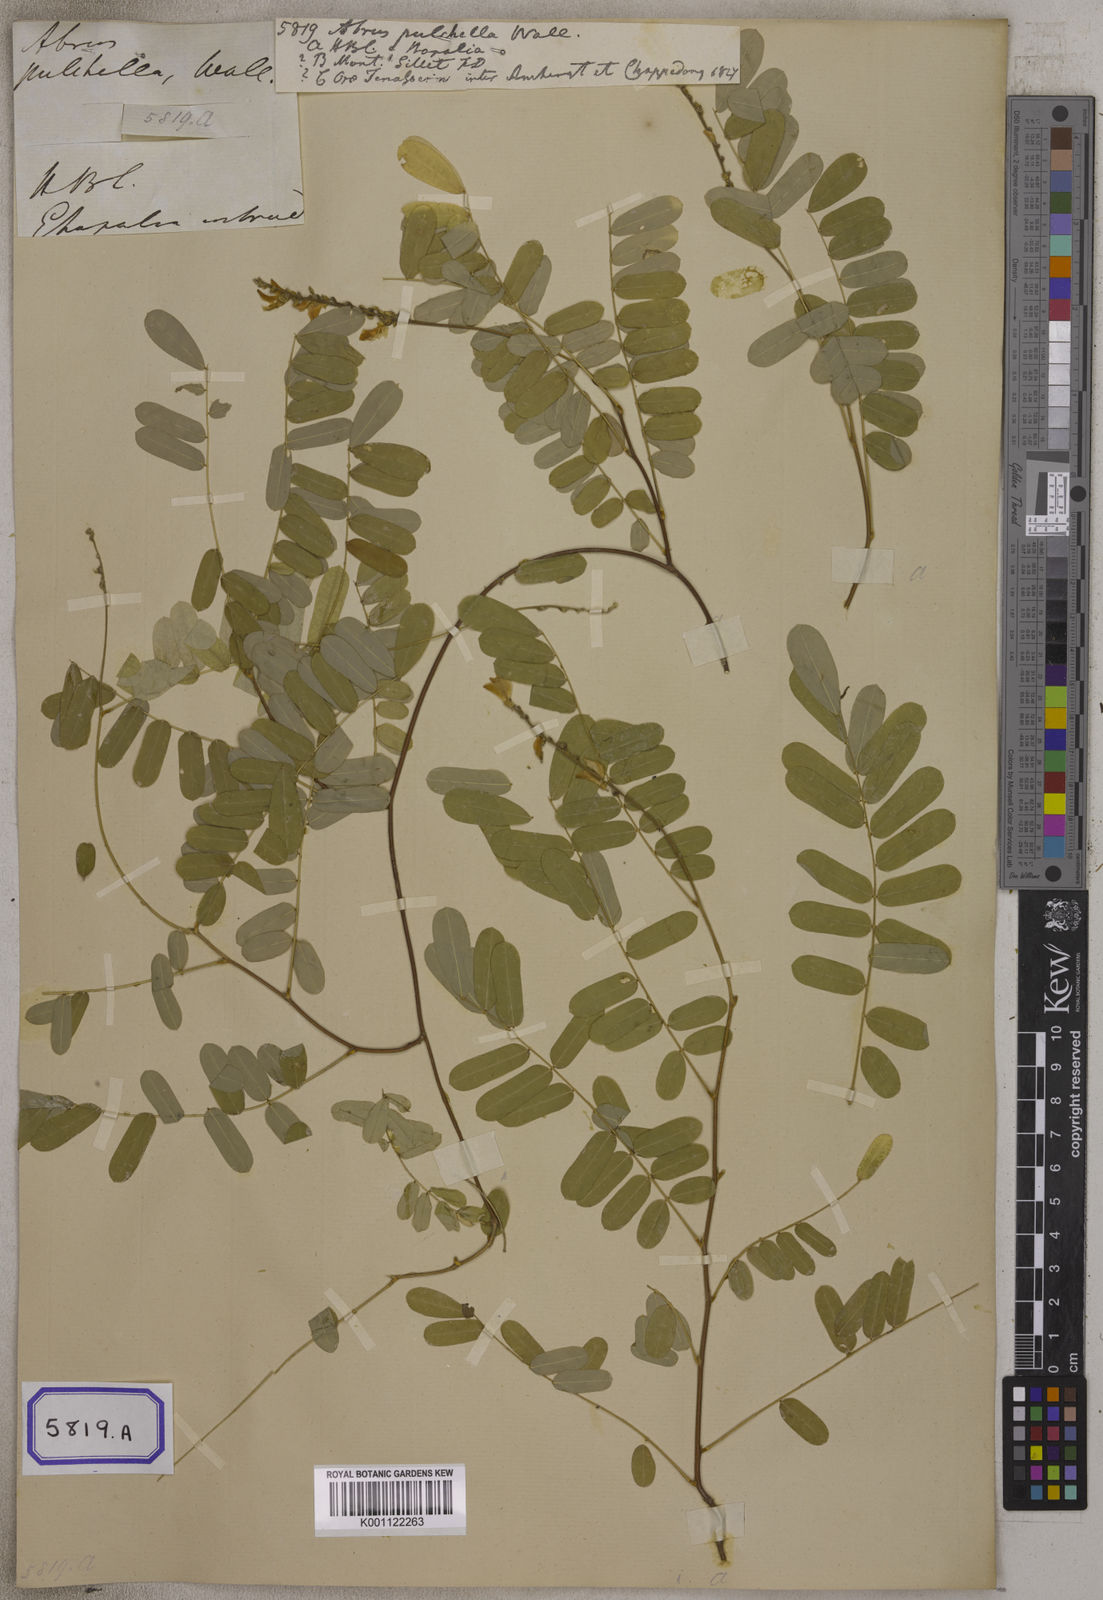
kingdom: Plantae
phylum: Tracheophyta
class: Magnoliopsida
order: Fabales
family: Fabaceae
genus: Abrus
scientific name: Abrus
